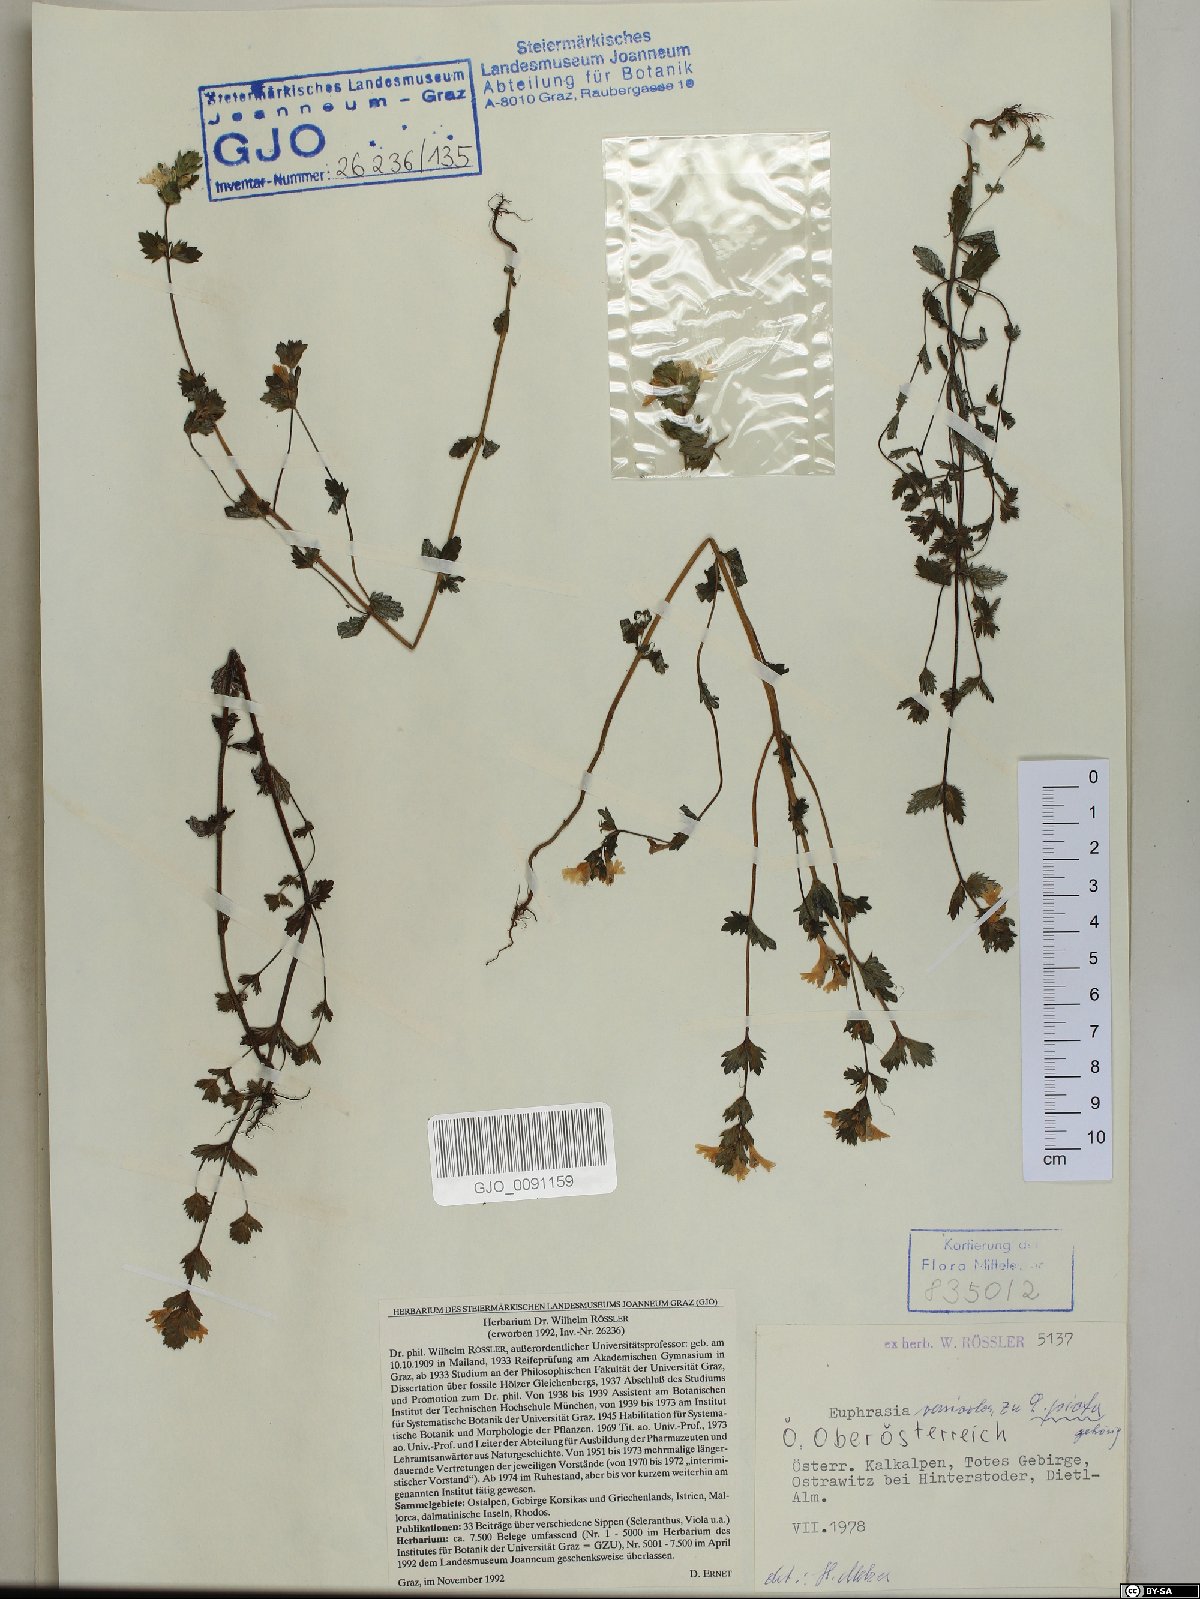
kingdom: Plantae
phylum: Tracheophyta
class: Magnoliopsida
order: Lamiales
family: Orobanchaceae
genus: Euphrasia
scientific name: Euphrasia picta
